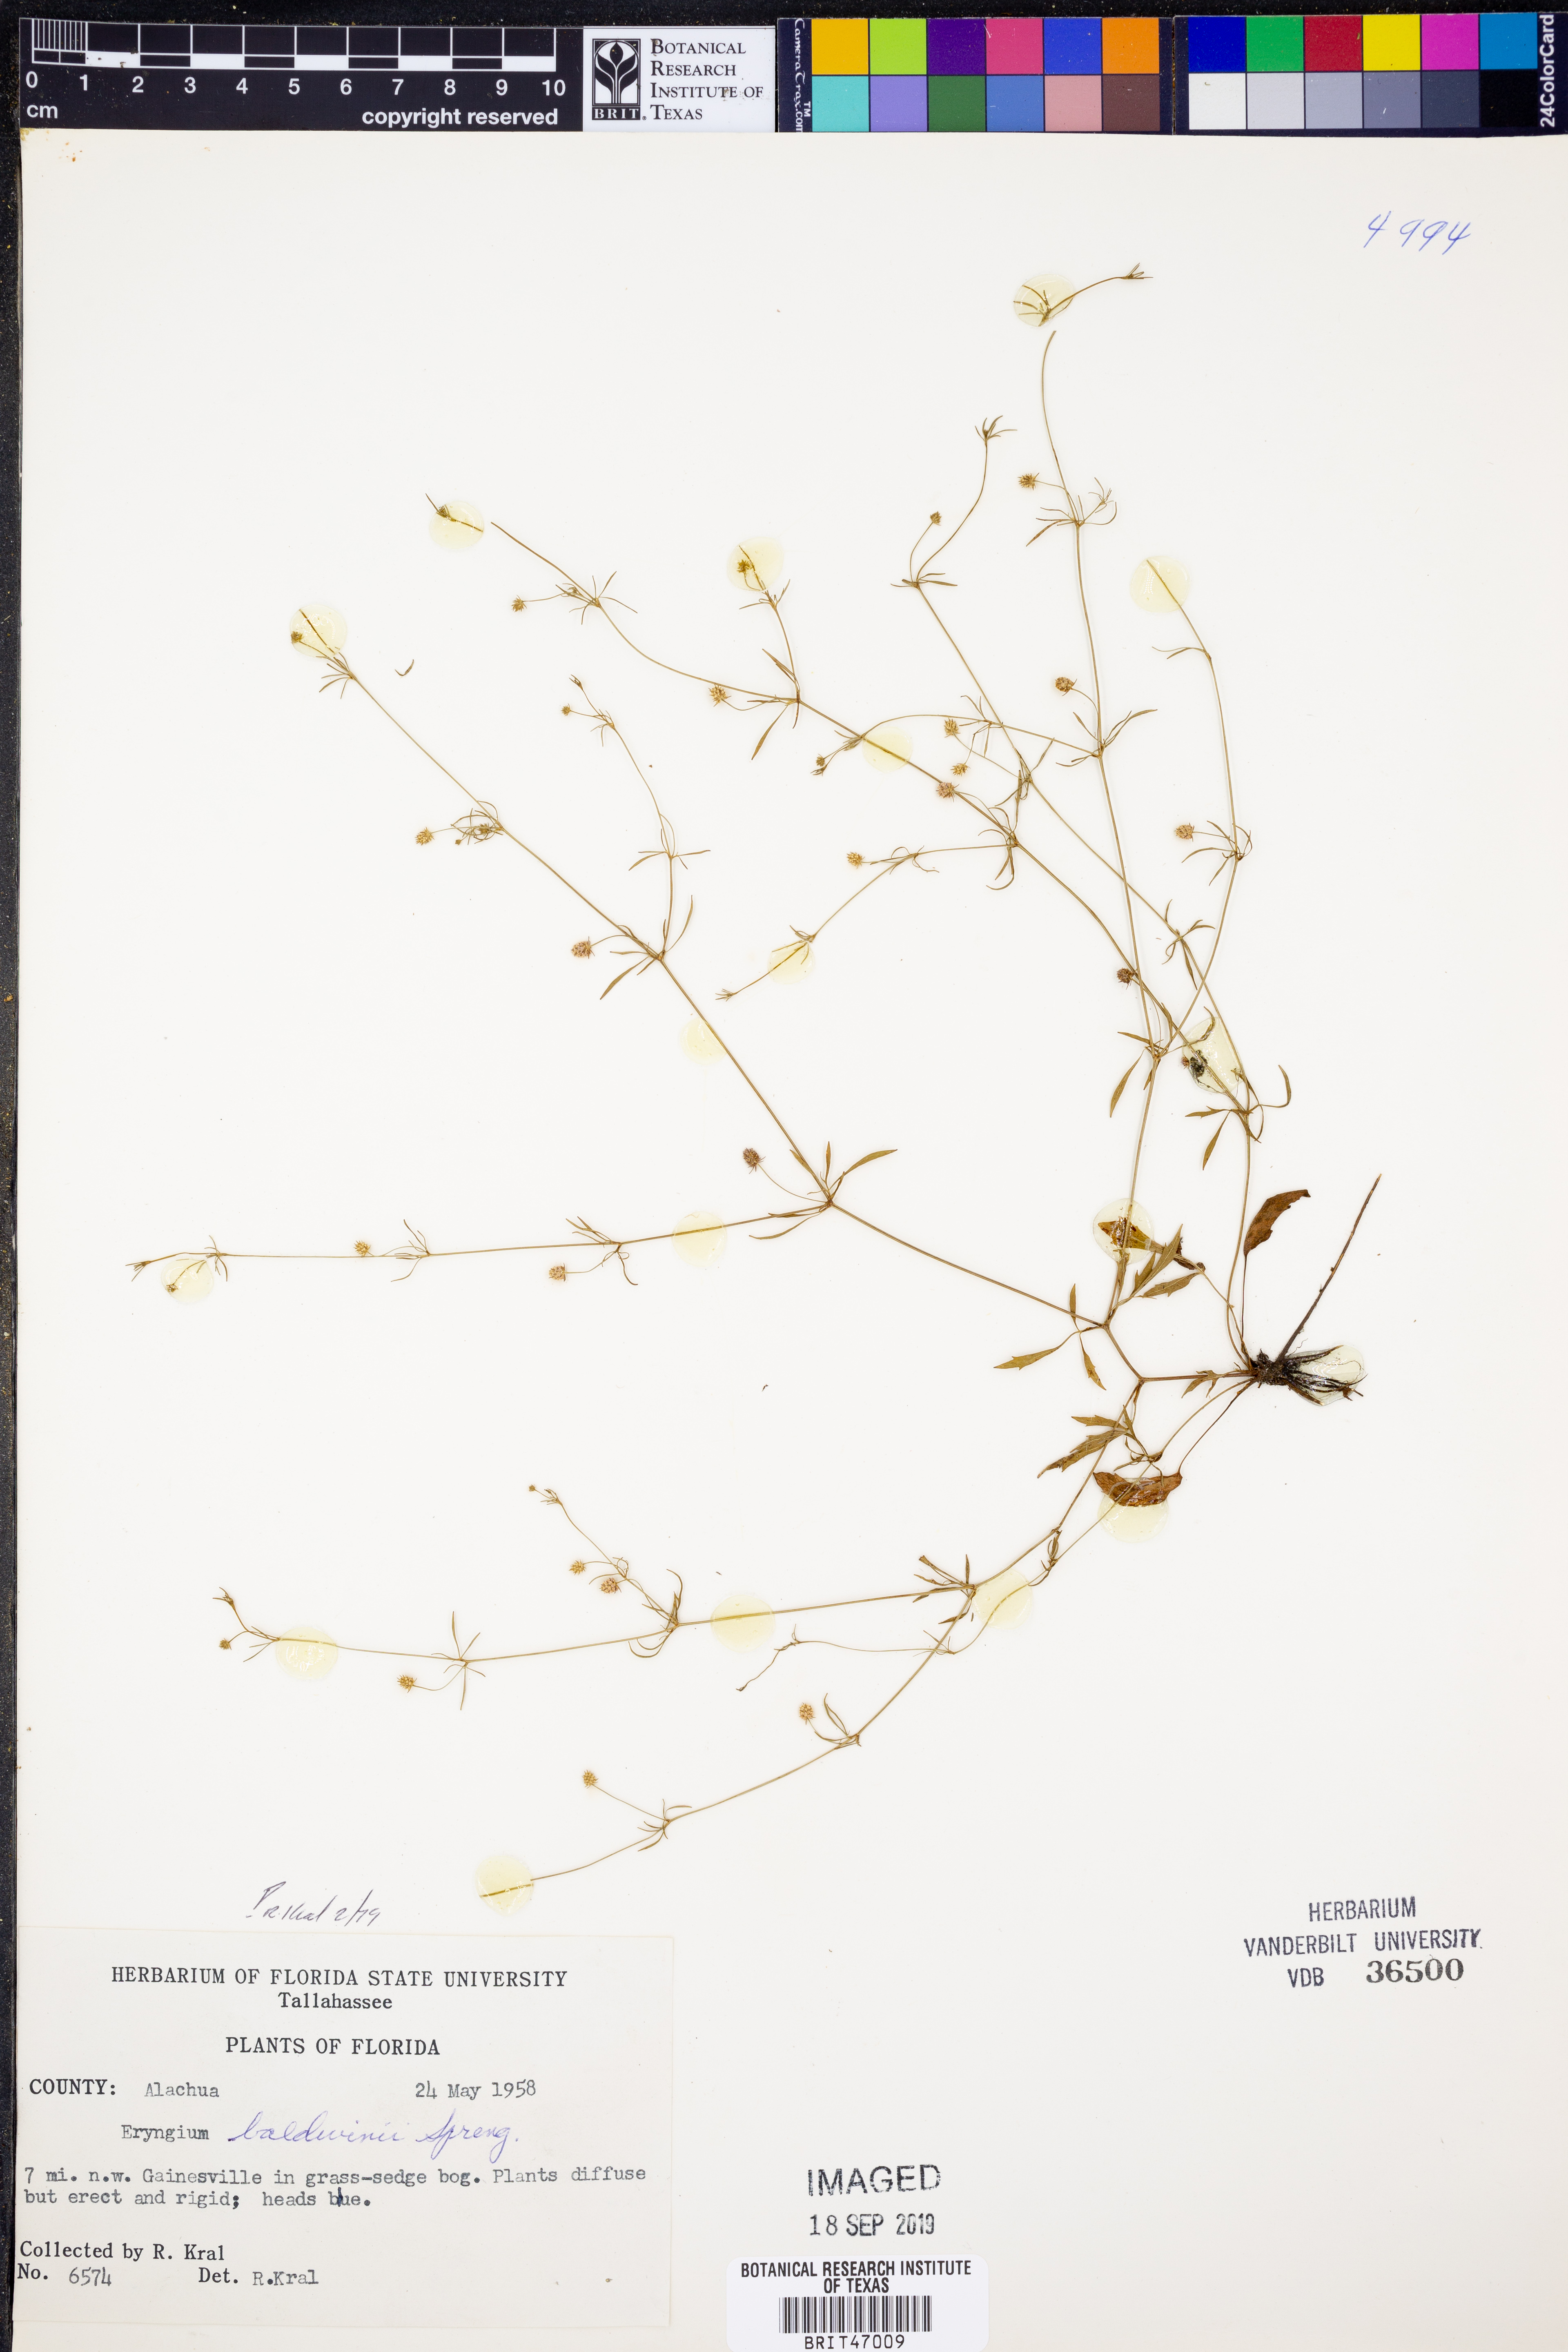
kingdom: Plantae
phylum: Tracheophyta
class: Magnoliopsida
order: Apiales
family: Apiaceae
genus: Eryngium
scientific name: Eryngium baldwinii
